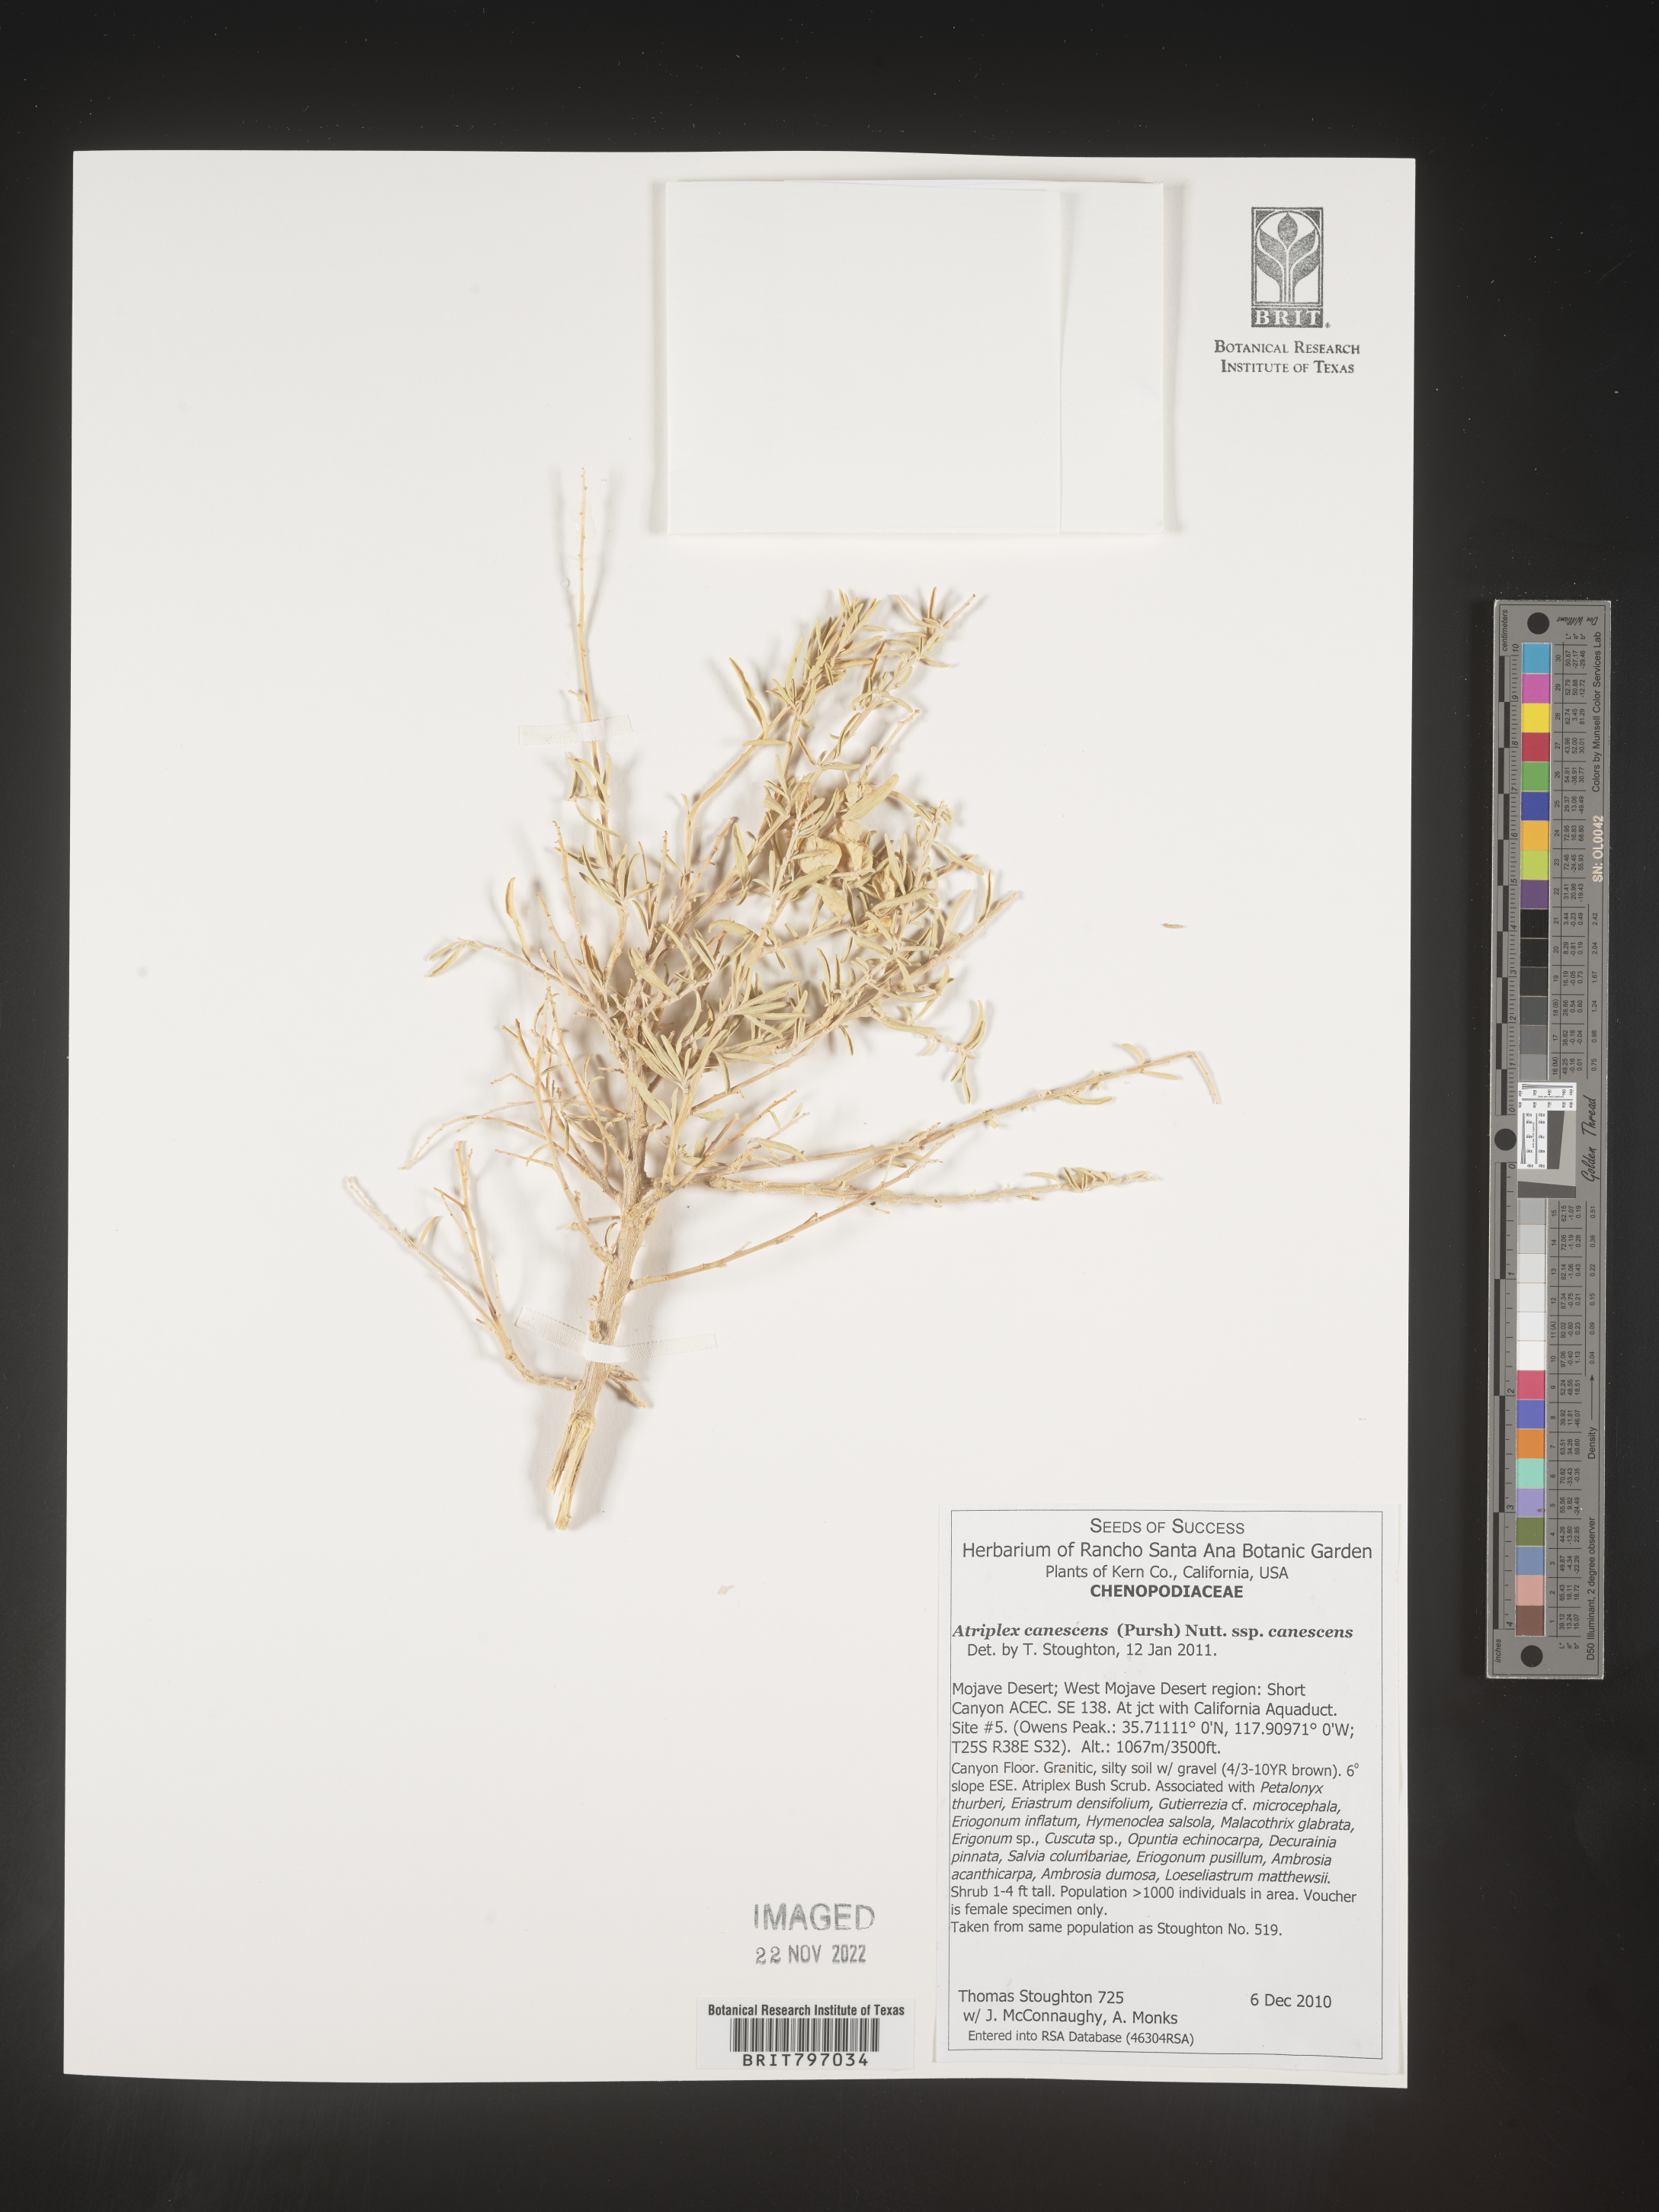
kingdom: Plantae
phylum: Tracheophyta
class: Magnoliopsida
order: Caryophyllales
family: Amaranthaceae
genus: Atriplex
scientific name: Atriplex canescens
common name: Four-wing saltbush
